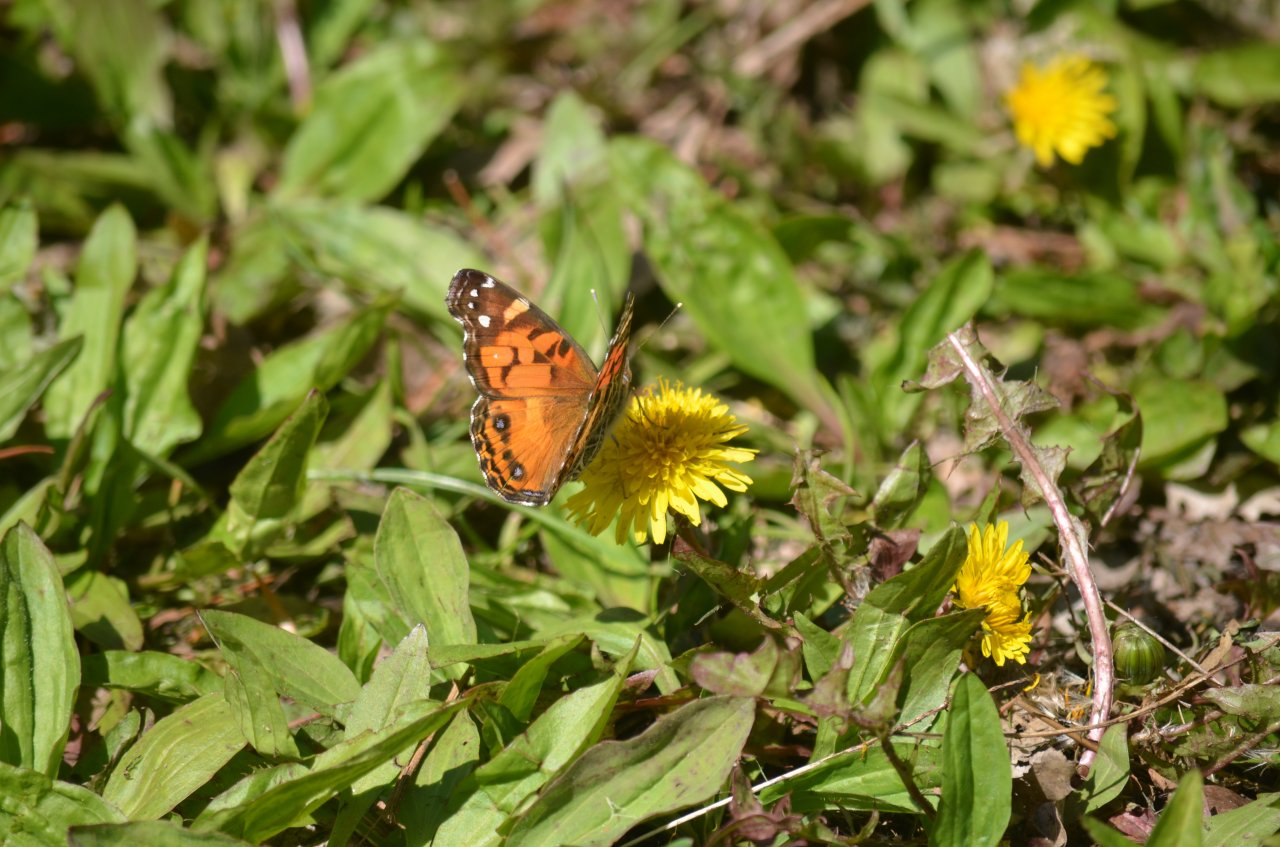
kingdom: Animalia
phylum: Arthropoda
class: Insecta
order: Lepidoptera
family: Nymphalidae
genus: Vanessa
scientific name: Vanessa virginiensis
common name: American Lady
